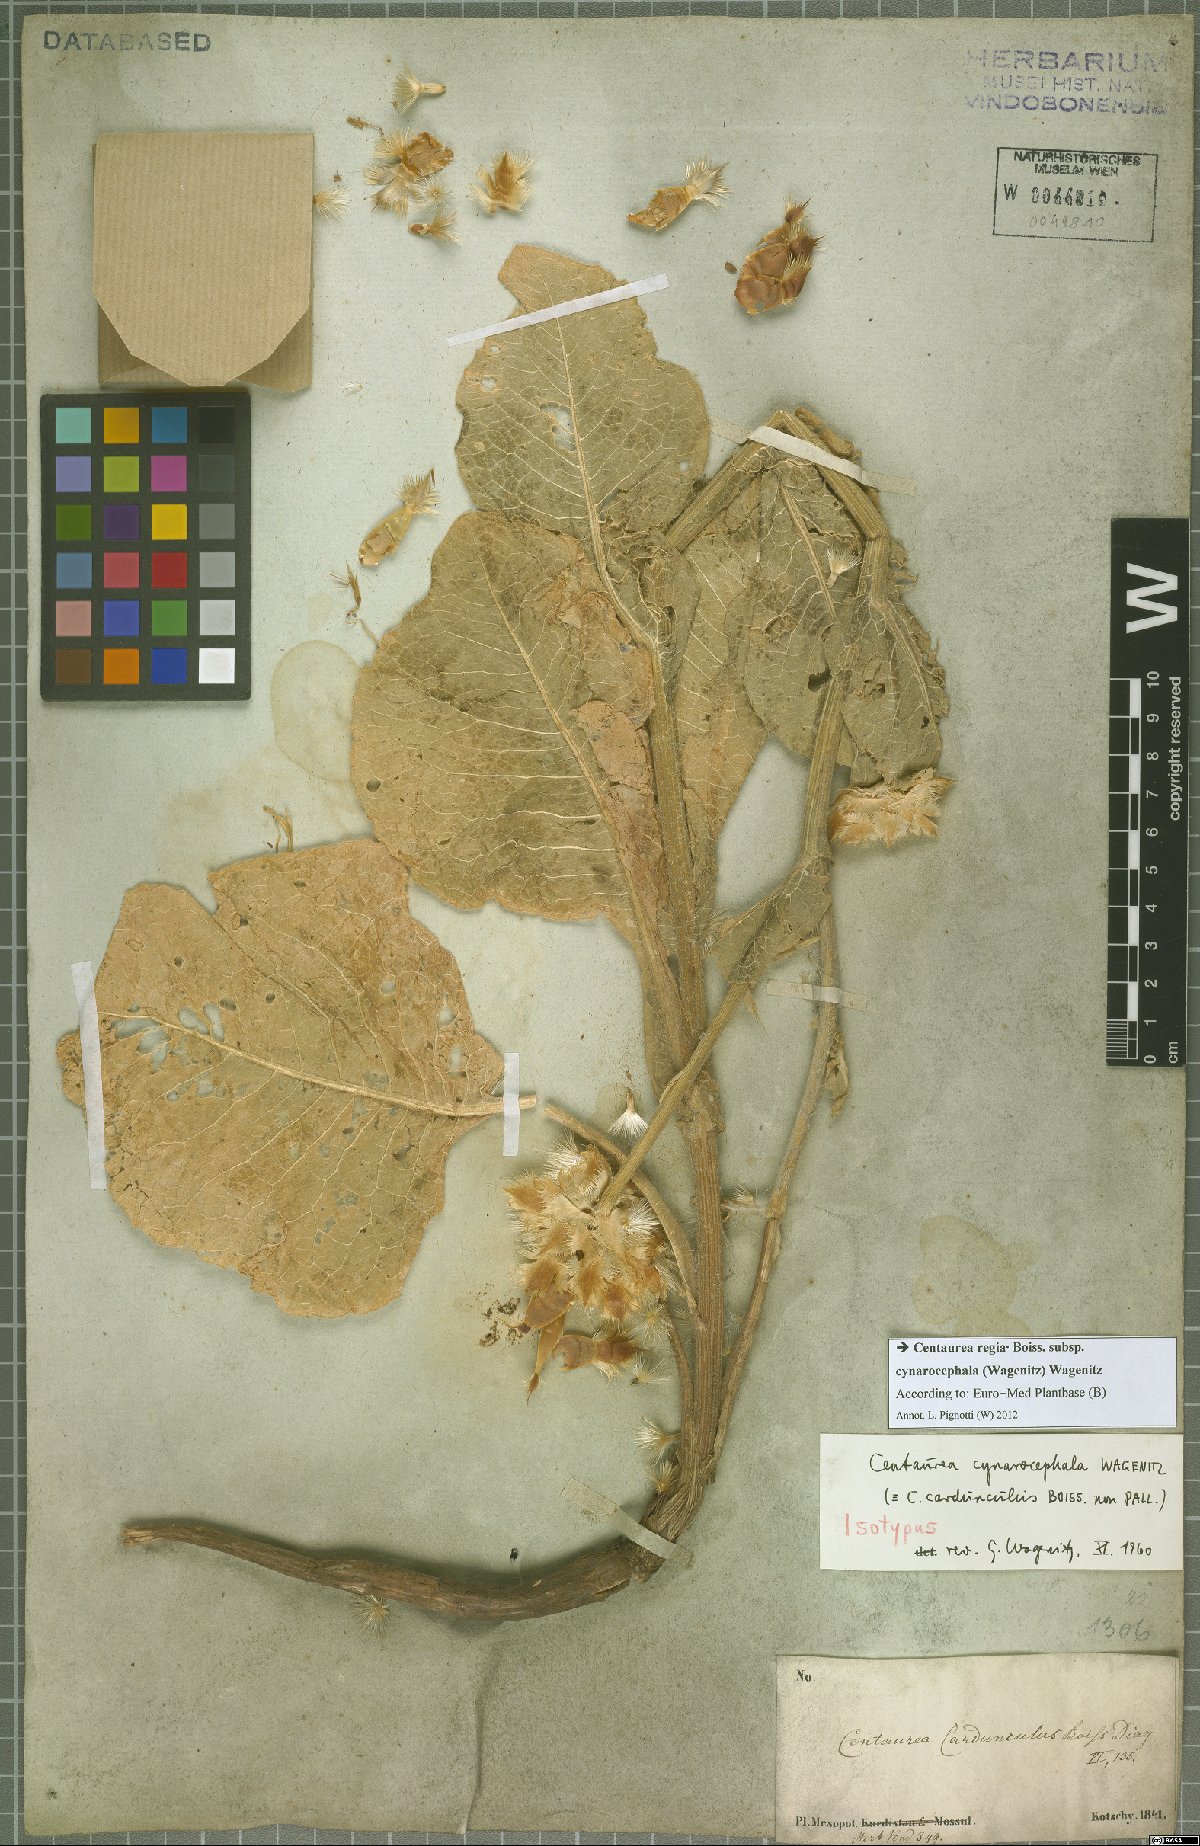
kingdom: Plantae
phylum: Tracheophyta
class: Magnoliopsida
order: Asterales
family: Asteraceae
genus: Centaurea
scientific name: Centaurea regia
